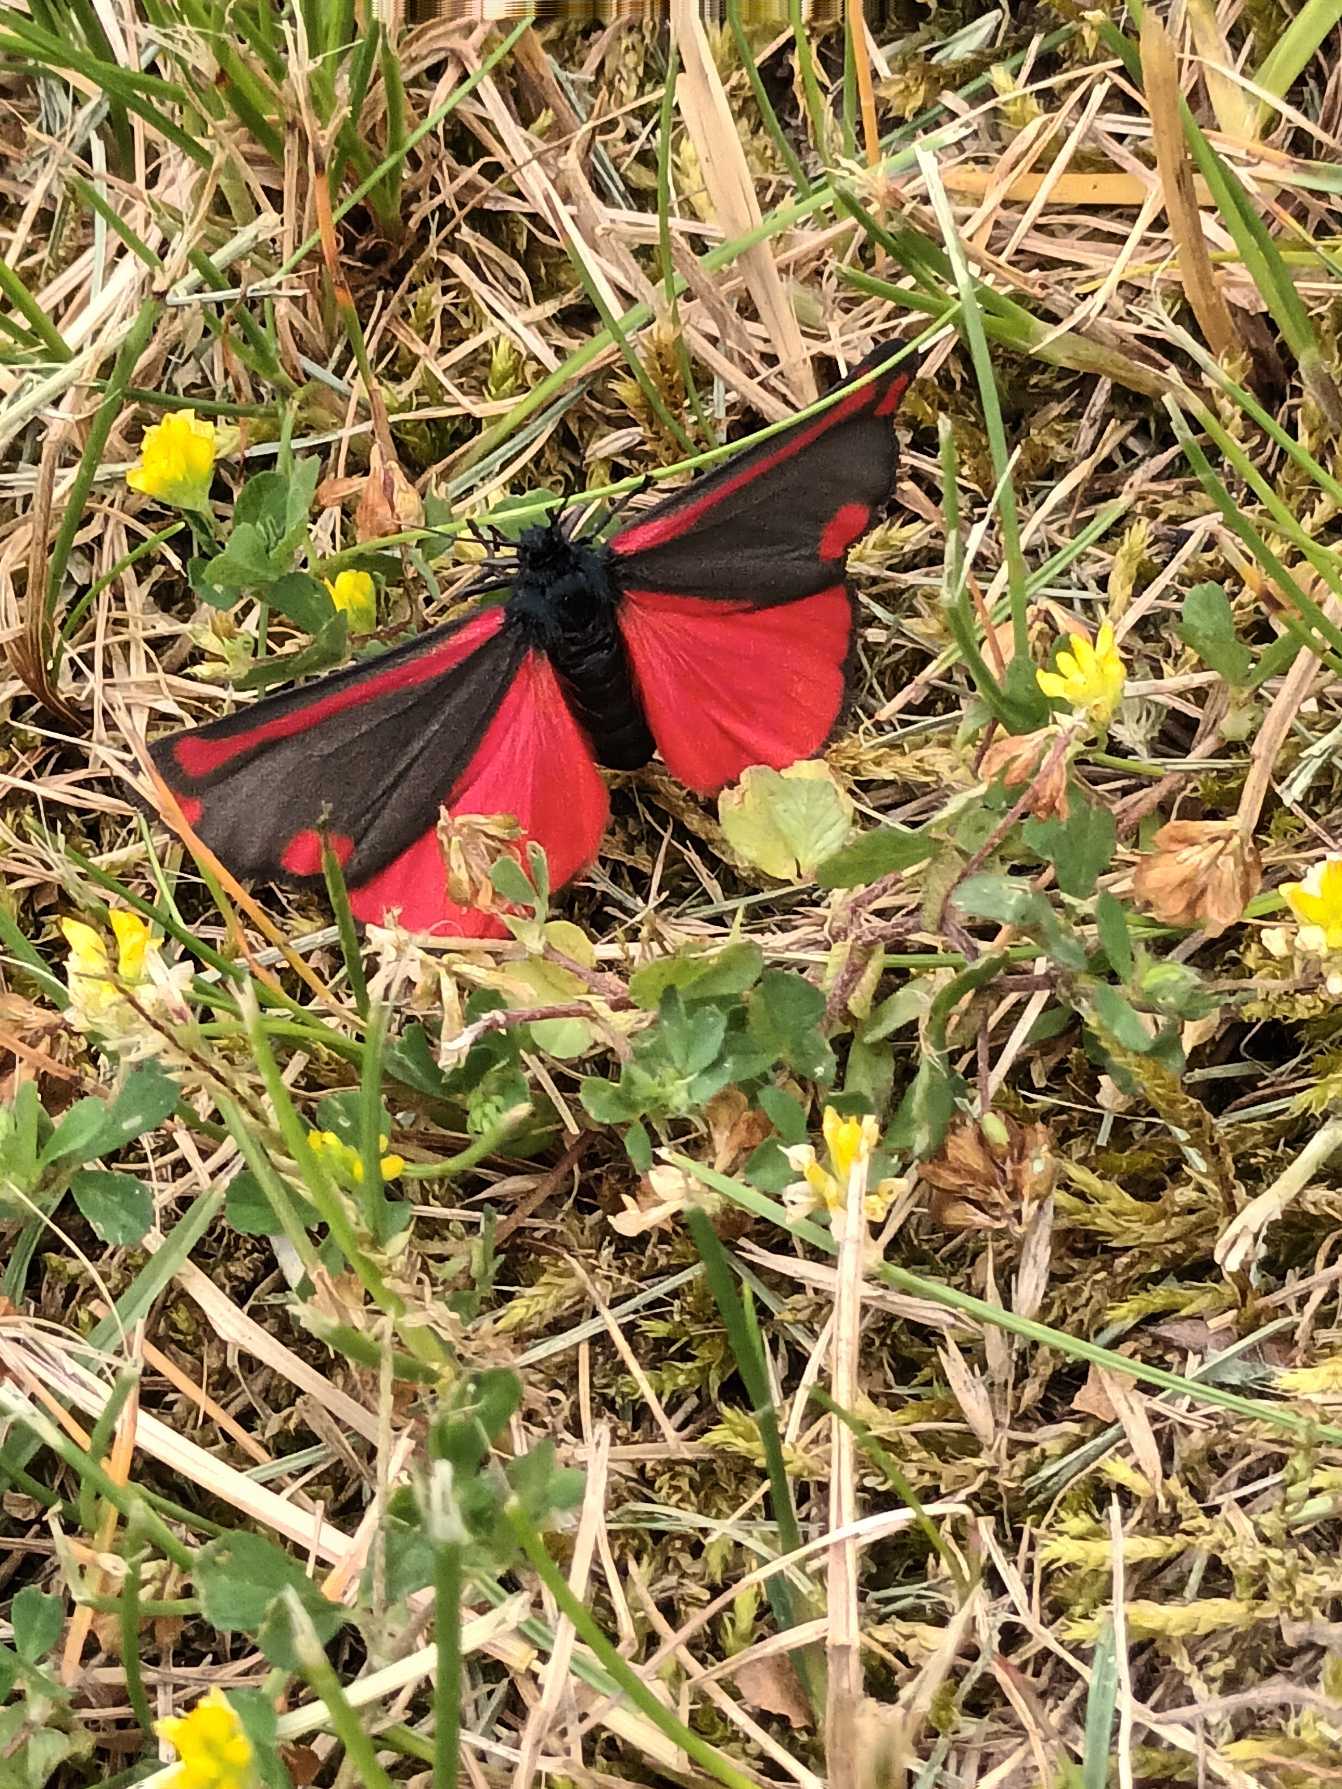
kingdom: Animalia
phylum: Arthropoda
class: Insecta
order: Lepidoptera
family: Erebidae
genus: Tyria
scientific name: Tyria jacobaeae
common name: Blodplet
